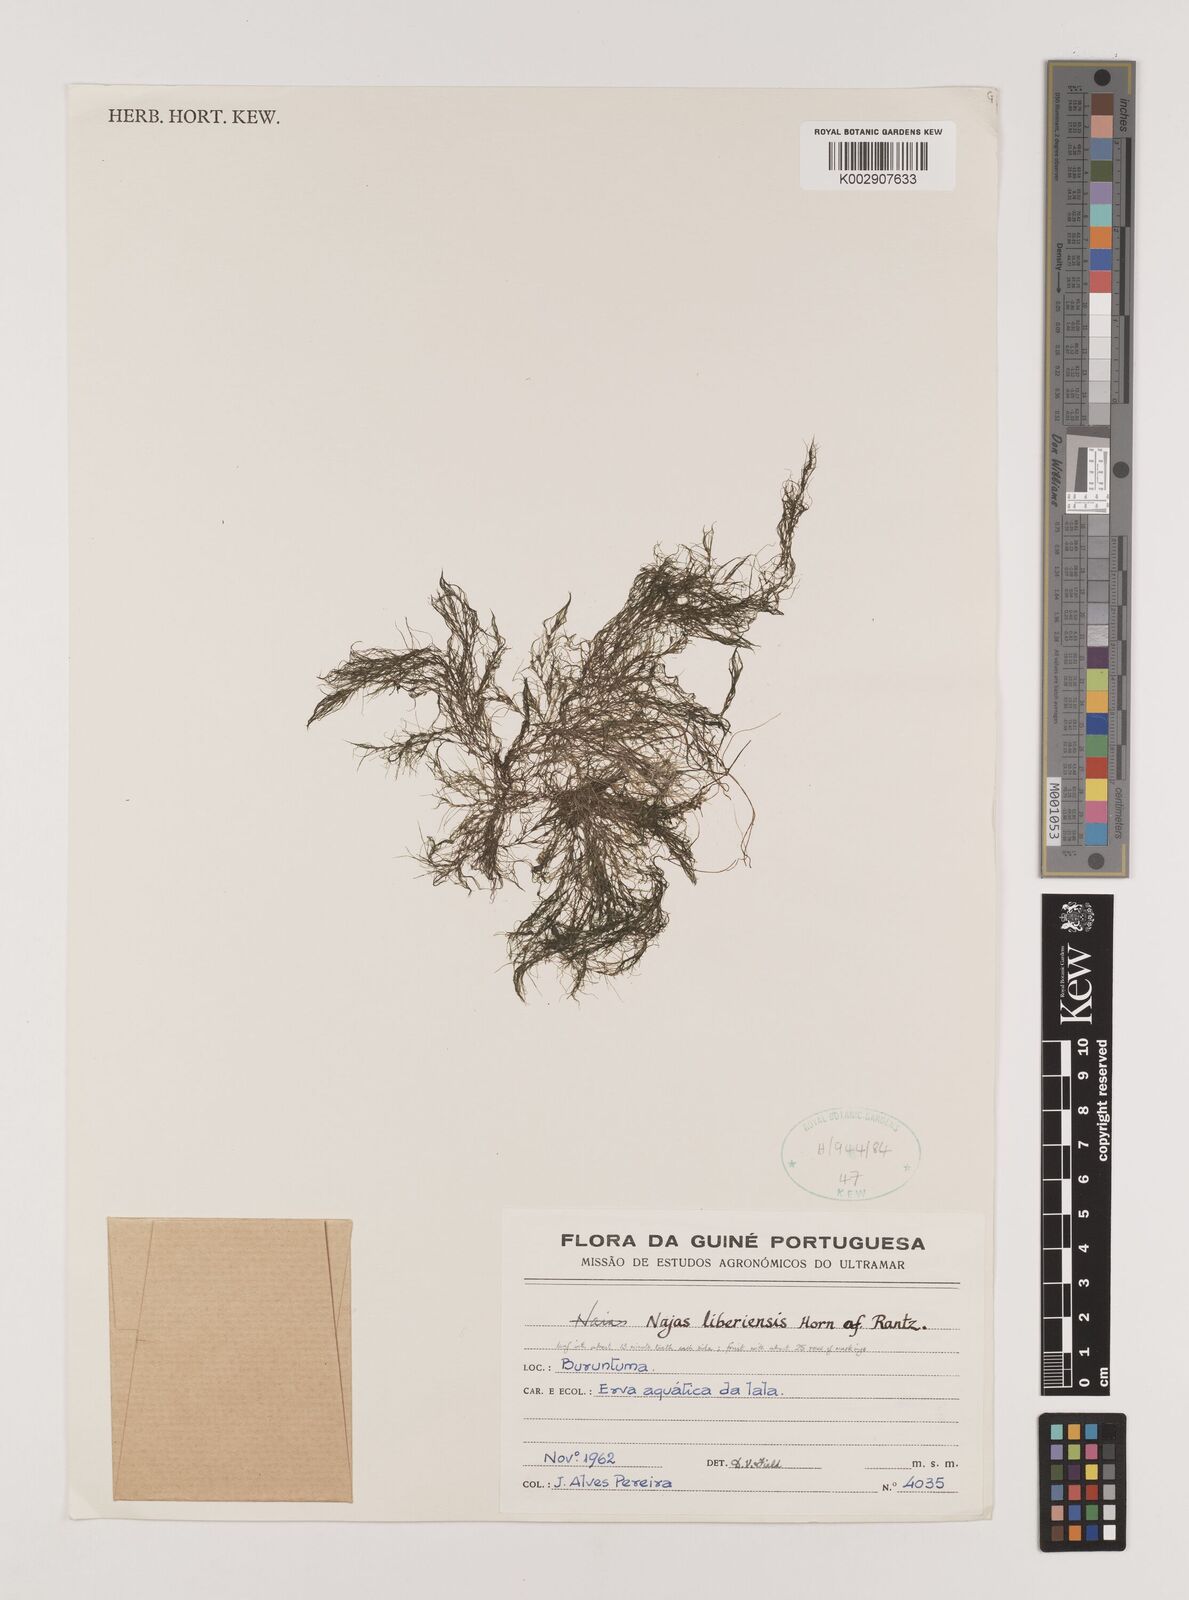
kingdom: Plantae
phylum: Tracheophyta
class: Liliopsida
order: Alismatales
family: Hydrocharitaceae
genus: Najas
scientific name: Najas baldwinii
